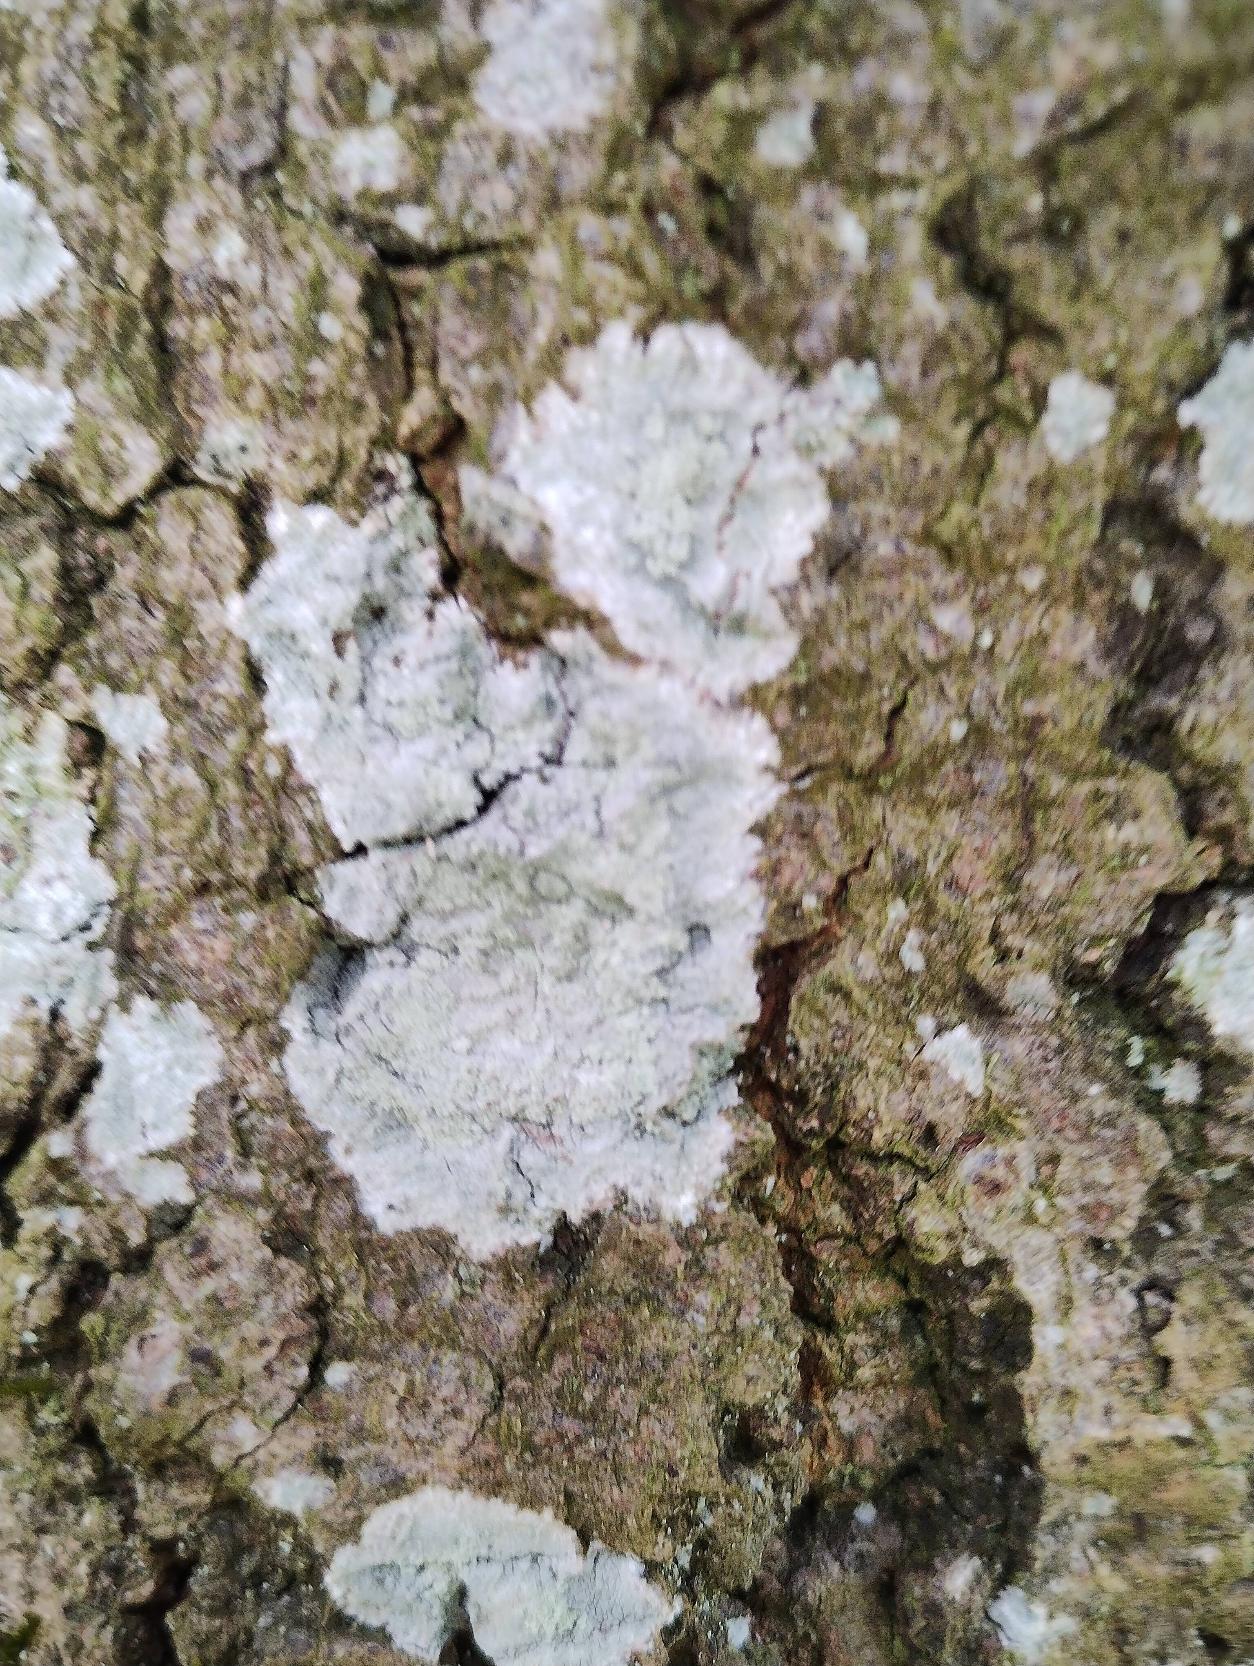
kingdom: Fungi
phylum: Ascomycota
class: Lecanoromycetes
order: Ostropales
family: Phlyctidaceae
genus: Phlyctis
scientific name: Phlyctis argena
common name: Almindelig sølvlav
